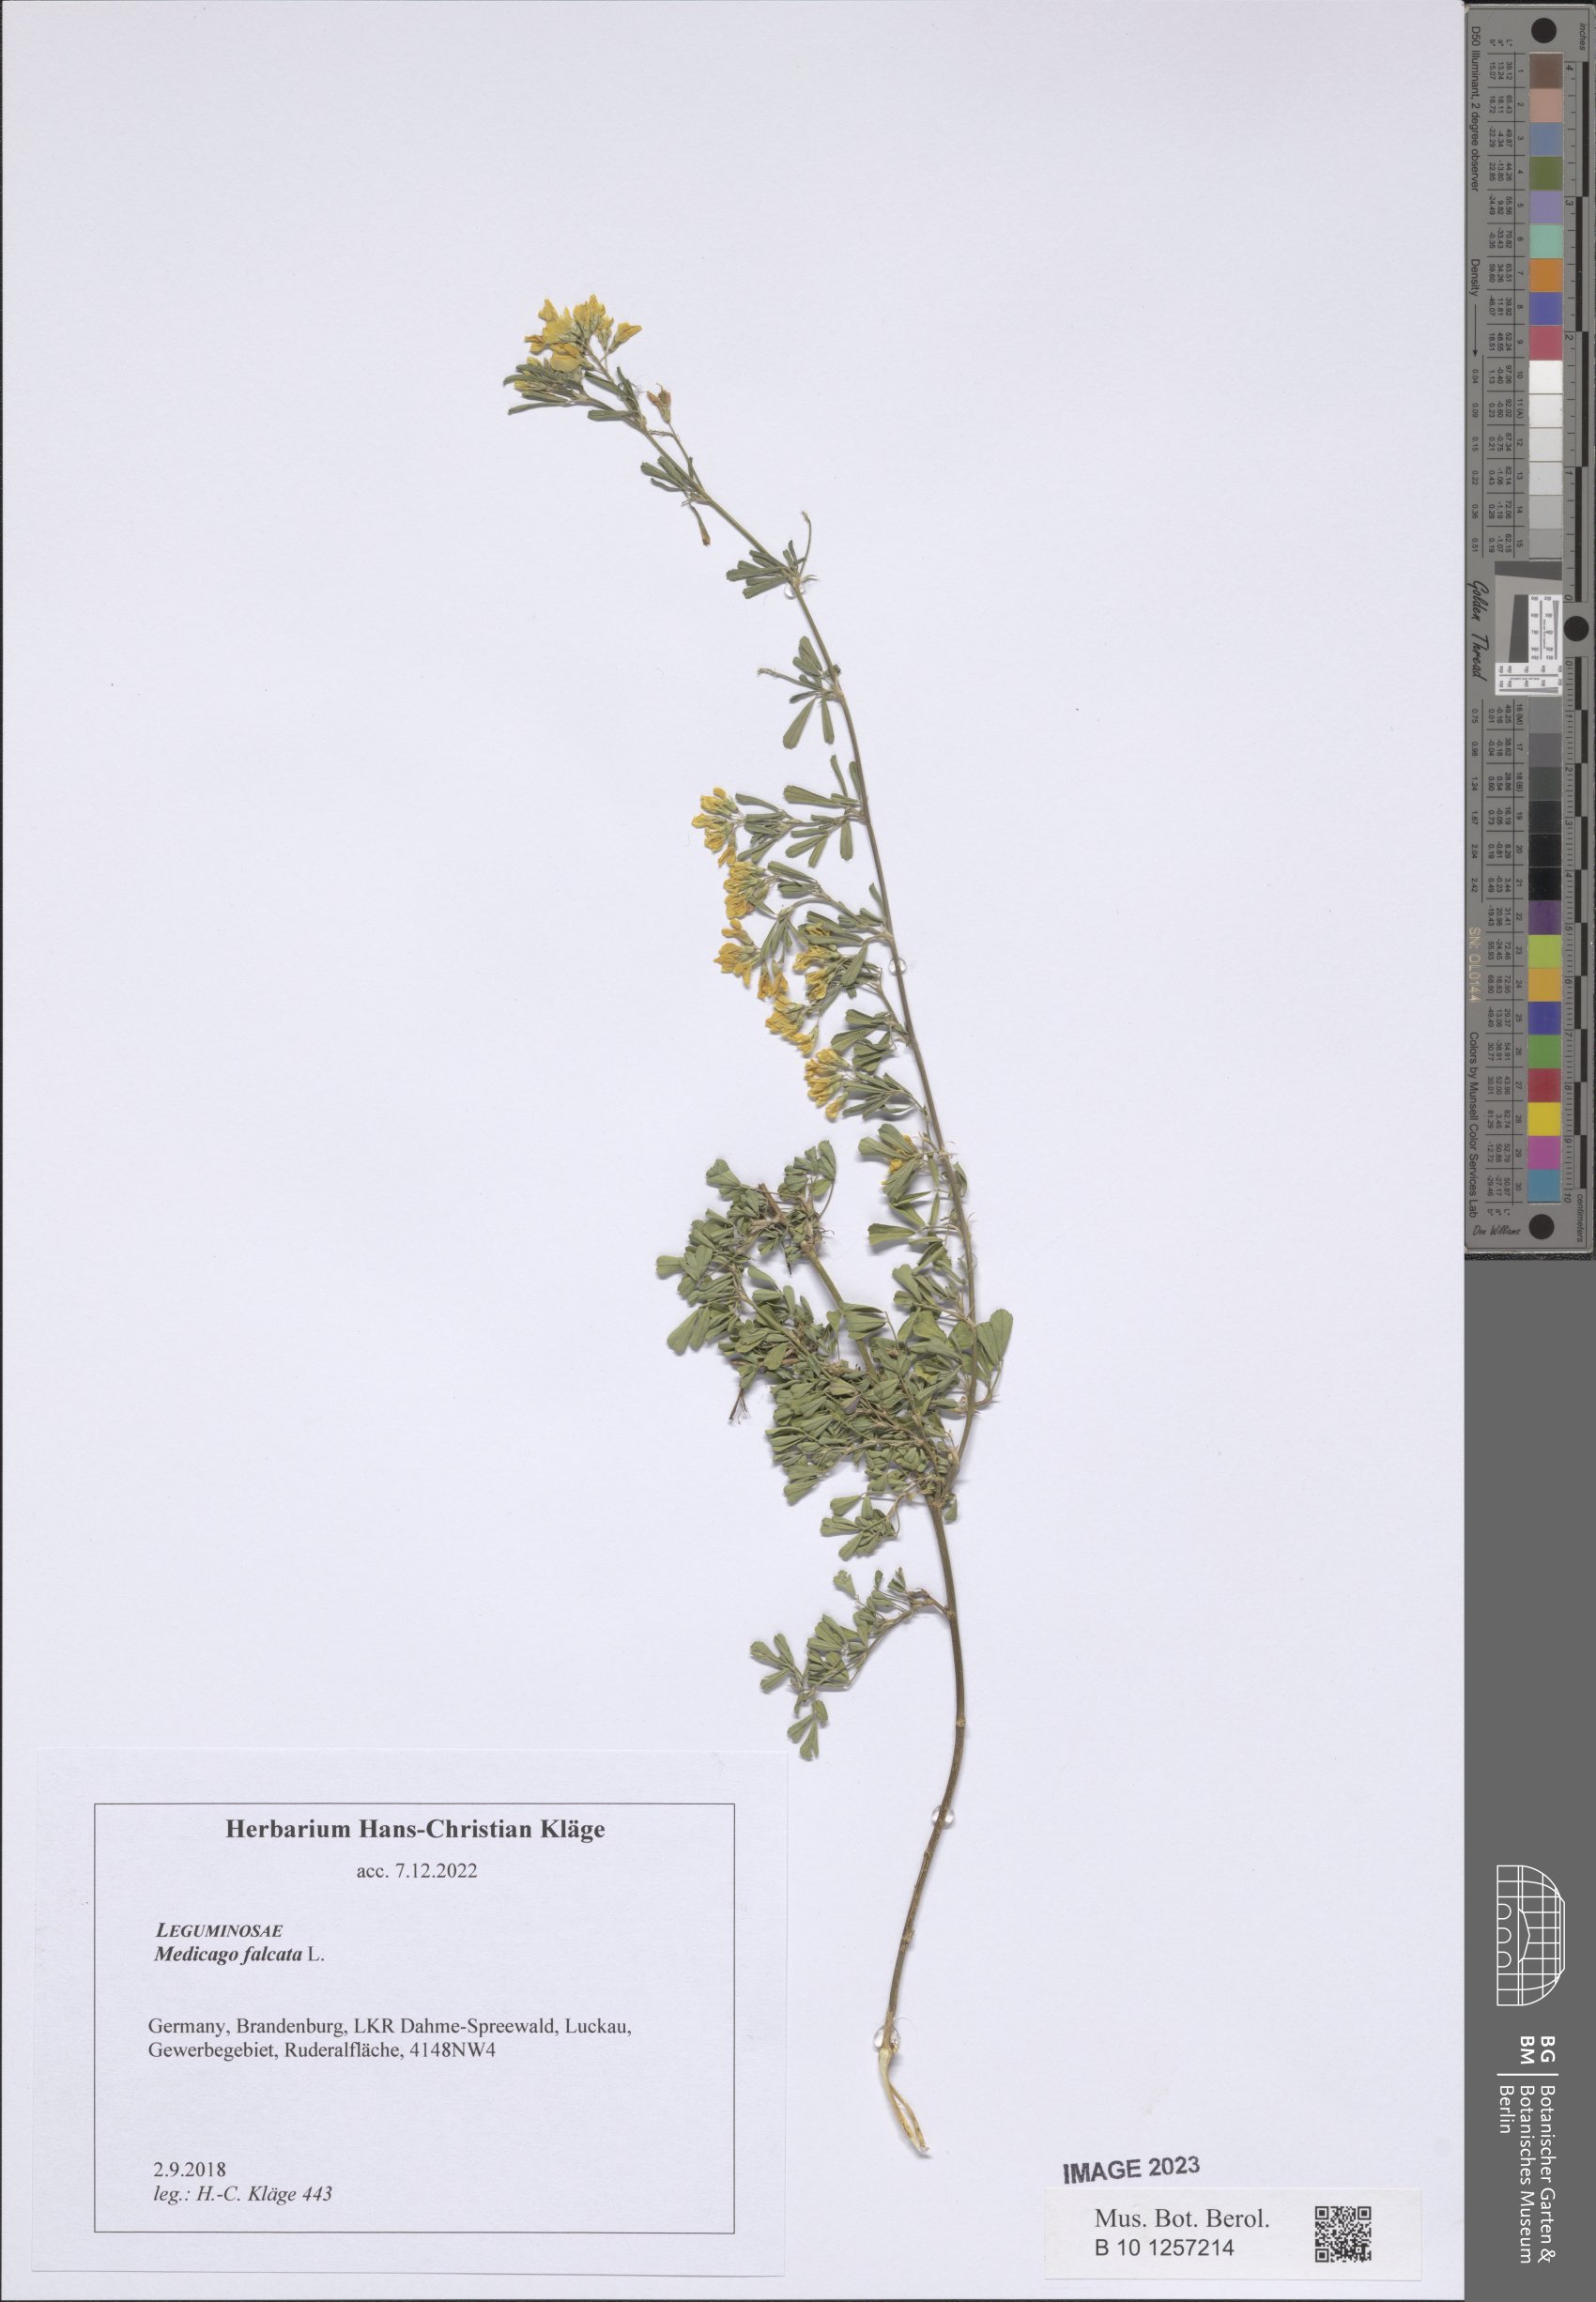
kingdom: Plantae
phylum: Tracheophyta
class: Magnoliopsida
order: Fabales
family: Fabaceae
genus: Medicago
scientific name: Medicago falcata
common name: Sickle medick
